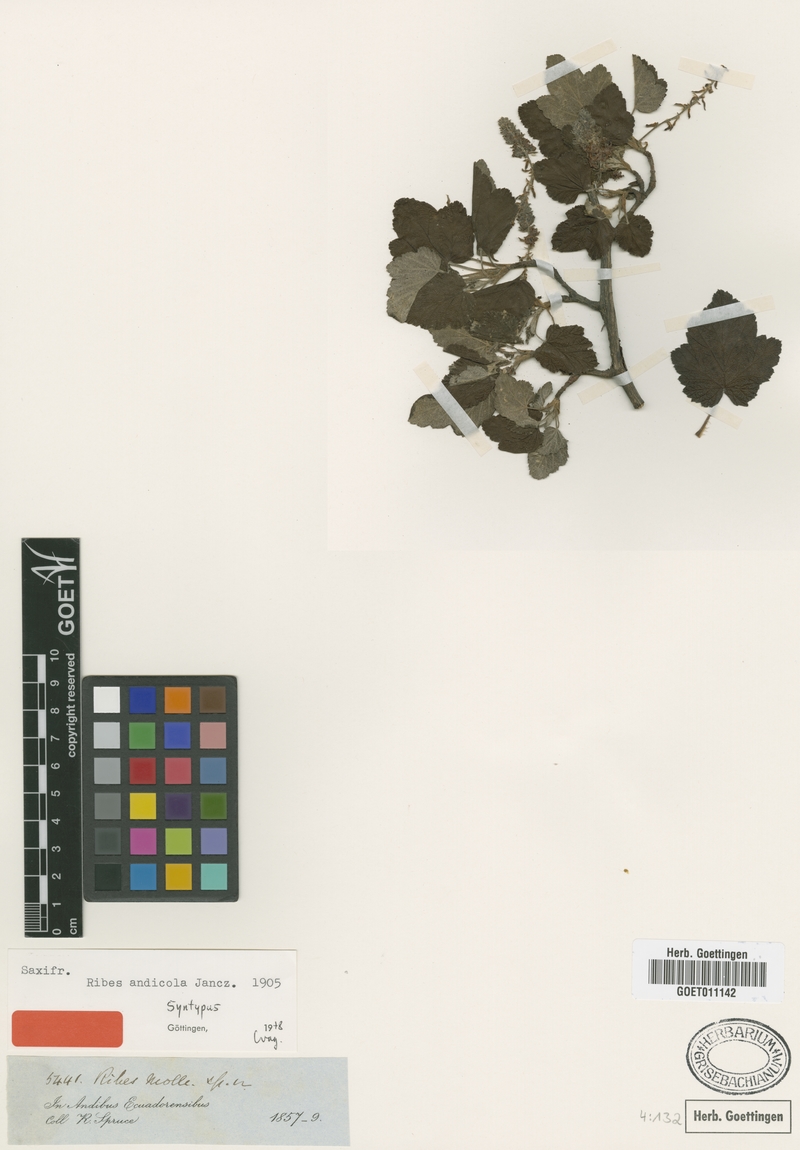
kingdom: Plantae
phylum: Tracheophyta
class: Magnoliopsida
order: Saxifragales
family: Grossulariaceae
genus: Ribes
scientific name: Ribes andicola
